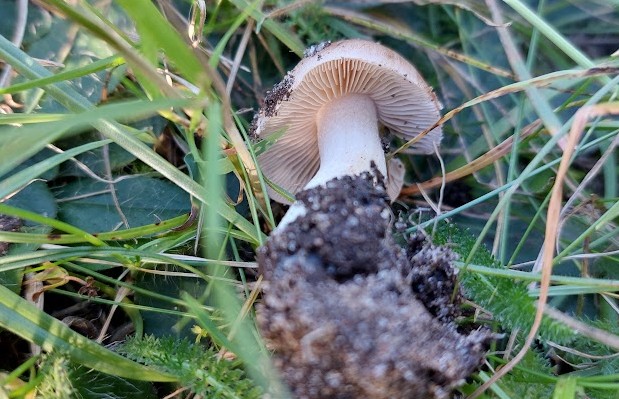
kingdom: Fungi
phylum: Basidiomycota
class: Agaricomycetes
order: Agaricales
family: Hymenogastraceae
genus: Hebeloma
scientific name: Hebeloma theobrominum
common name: rødbrun tåreblad
